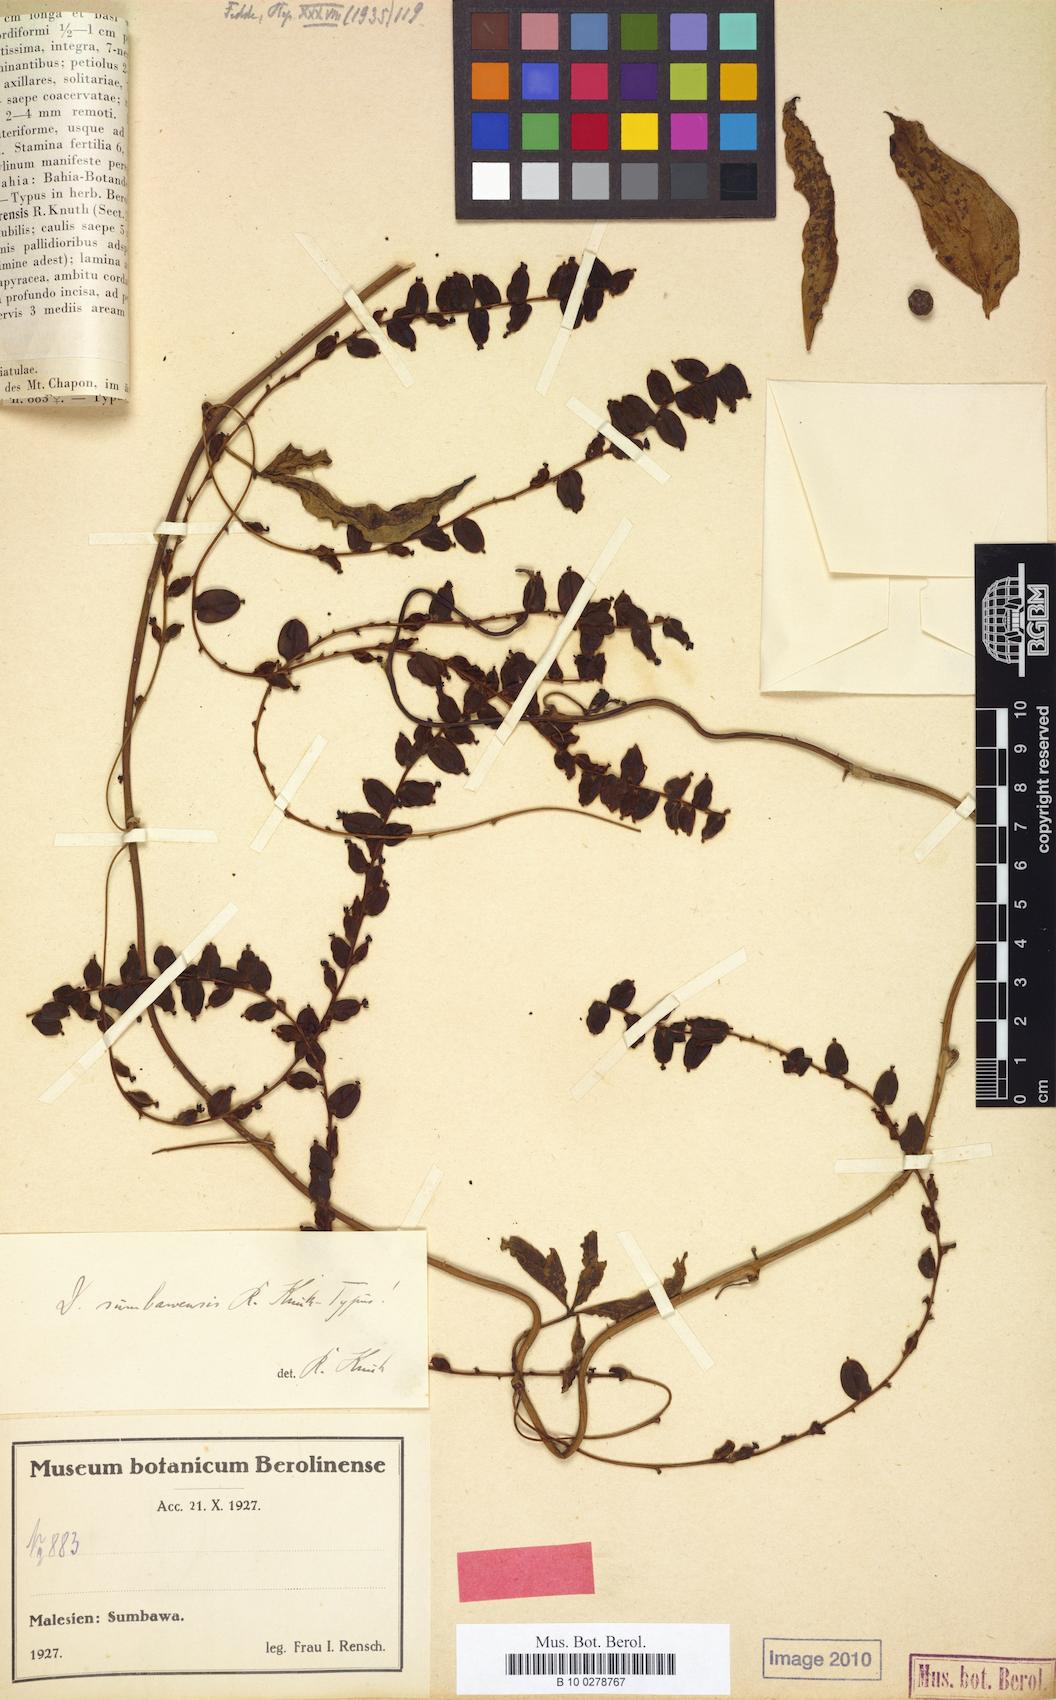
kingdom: Plantae
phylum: Tracheophyta
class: Liliopsida
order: Dioscoreales
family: Dioscoreaceae
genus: Dioscorea
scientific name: Dioscorea pentaphylla
